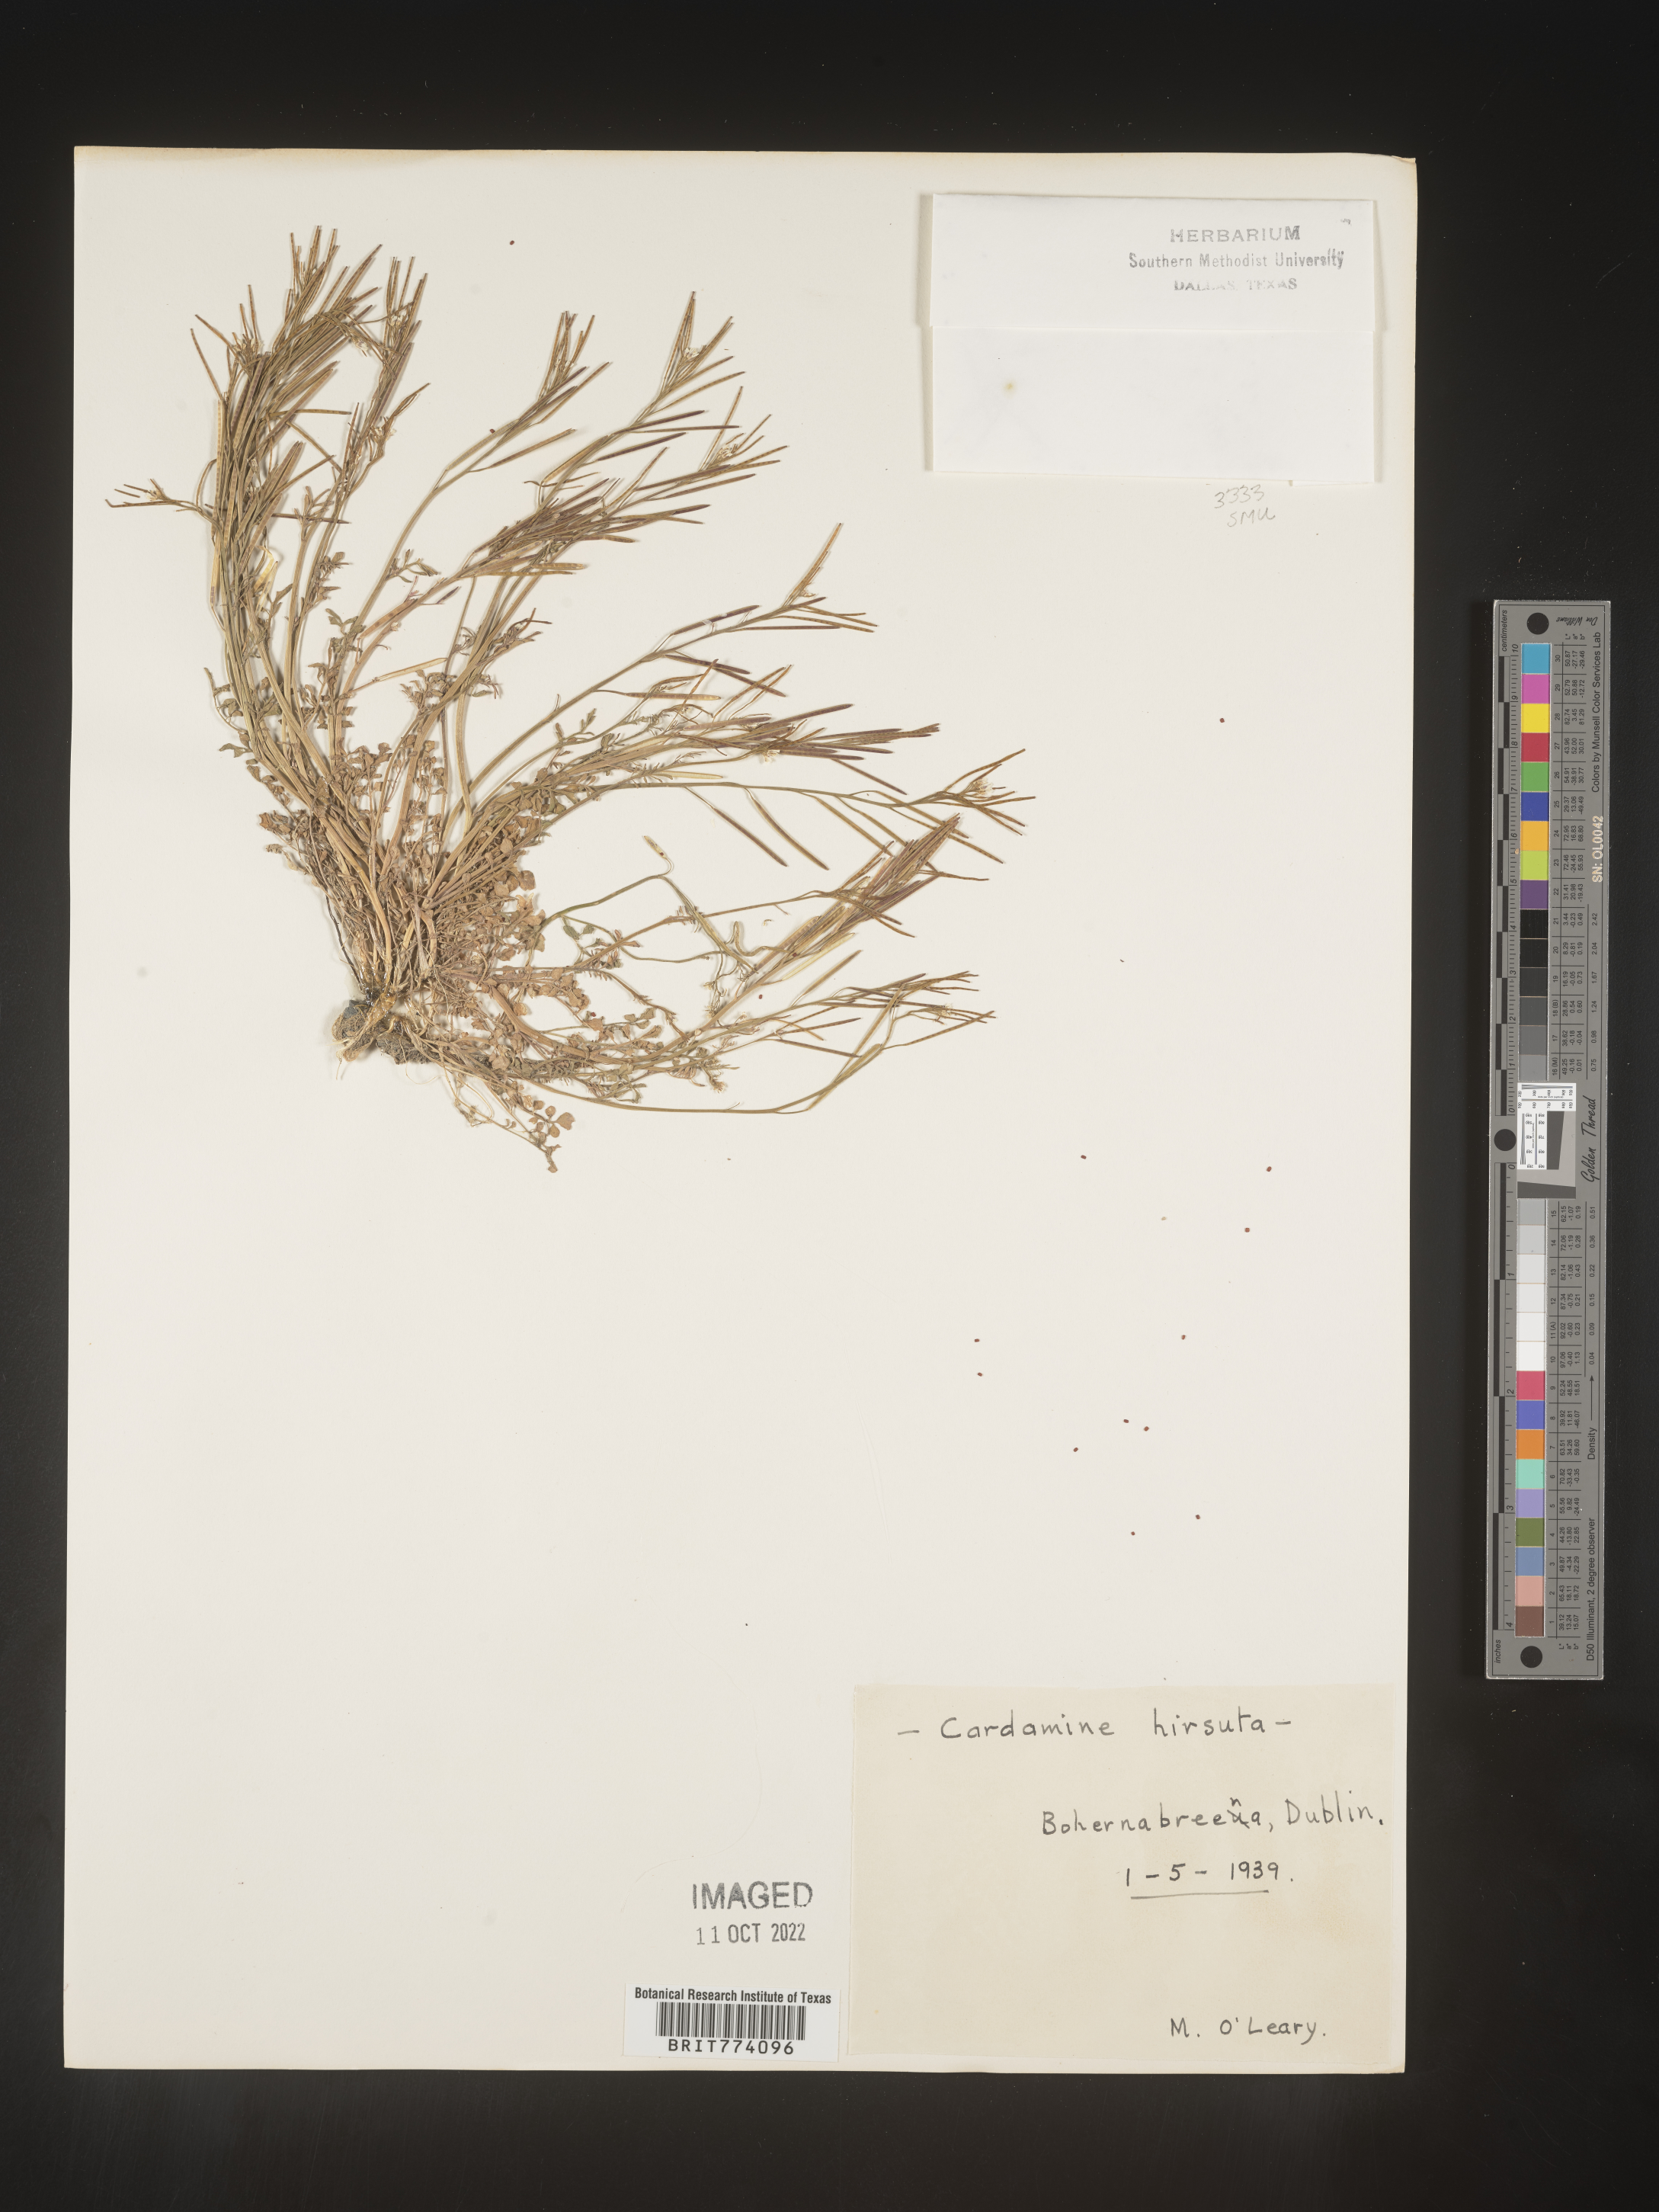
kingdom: Plantae
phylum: Tracheophyta
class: Magnoliopsida
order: Brassicales
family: Brassicaceae
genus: Cardamine
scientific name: Cardamine hirsuta
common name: Hairy bittercress
